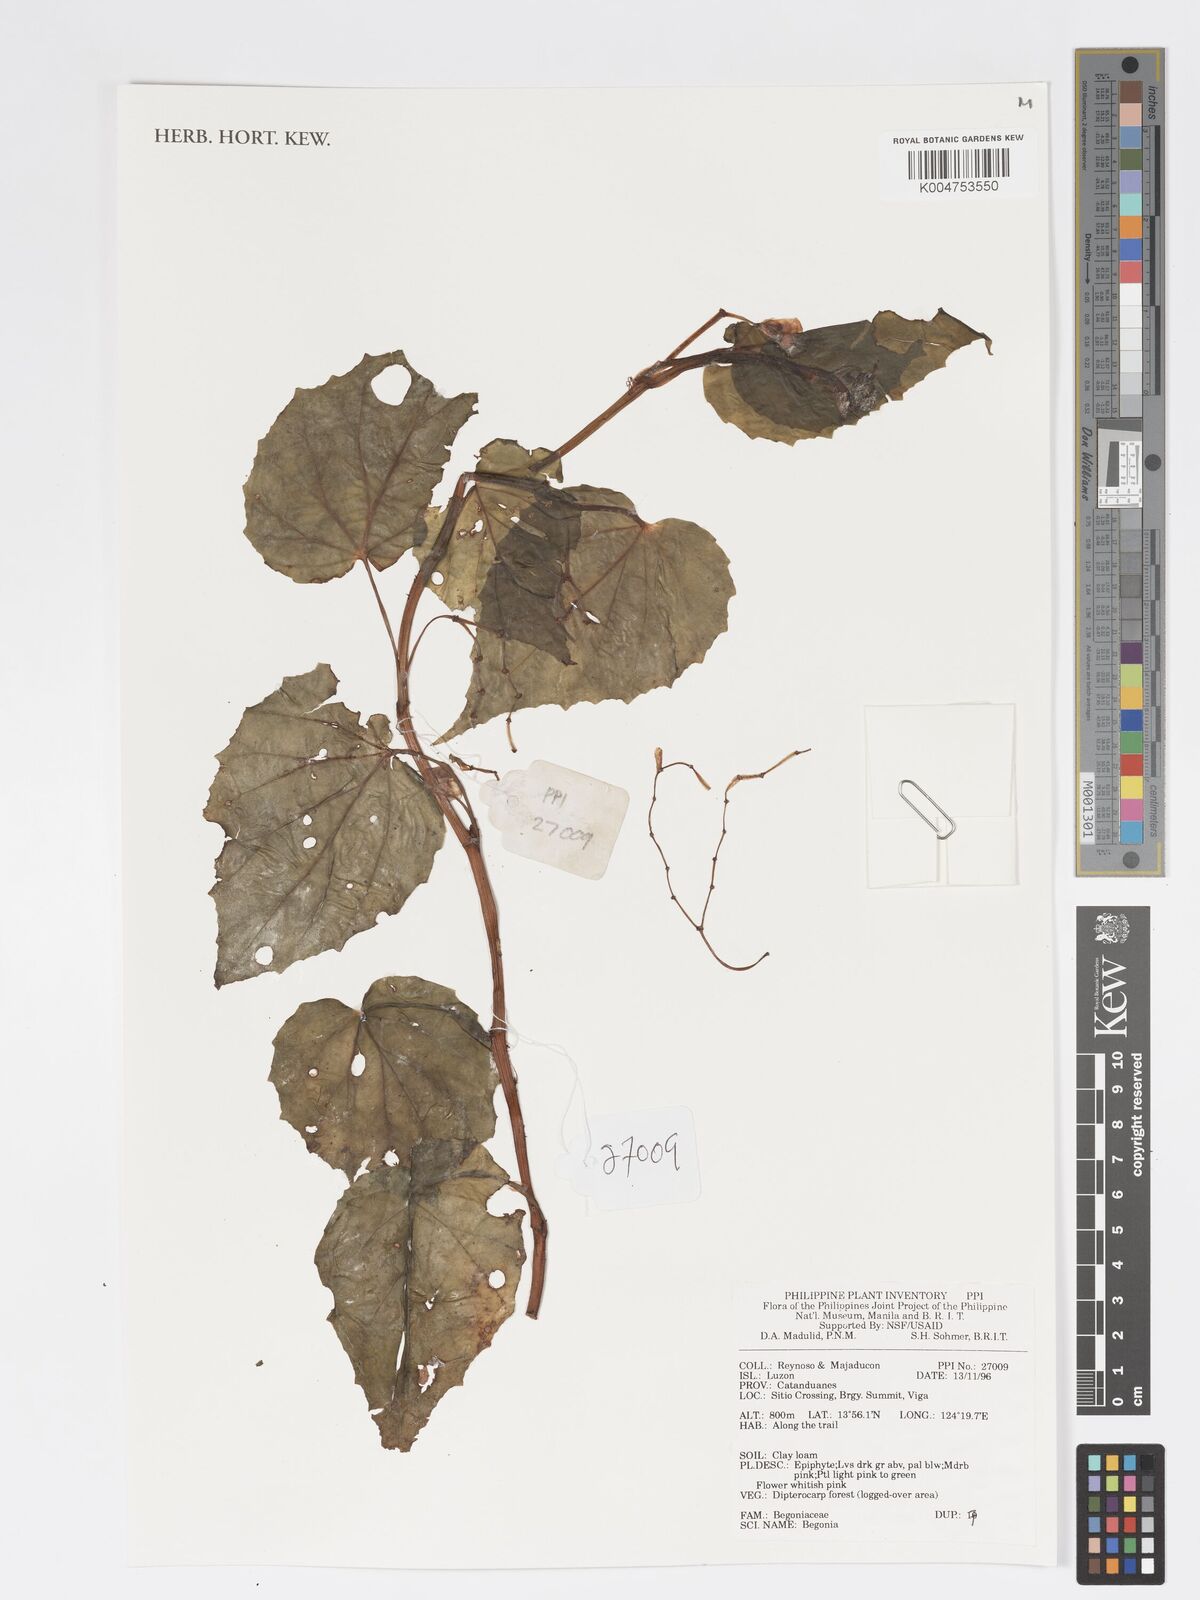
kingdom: Plantae
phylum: Tracheophyta
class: Magnoliopsida
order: Cucurbitales
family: Begoniaceae
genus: Begonia
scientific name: Begonia
